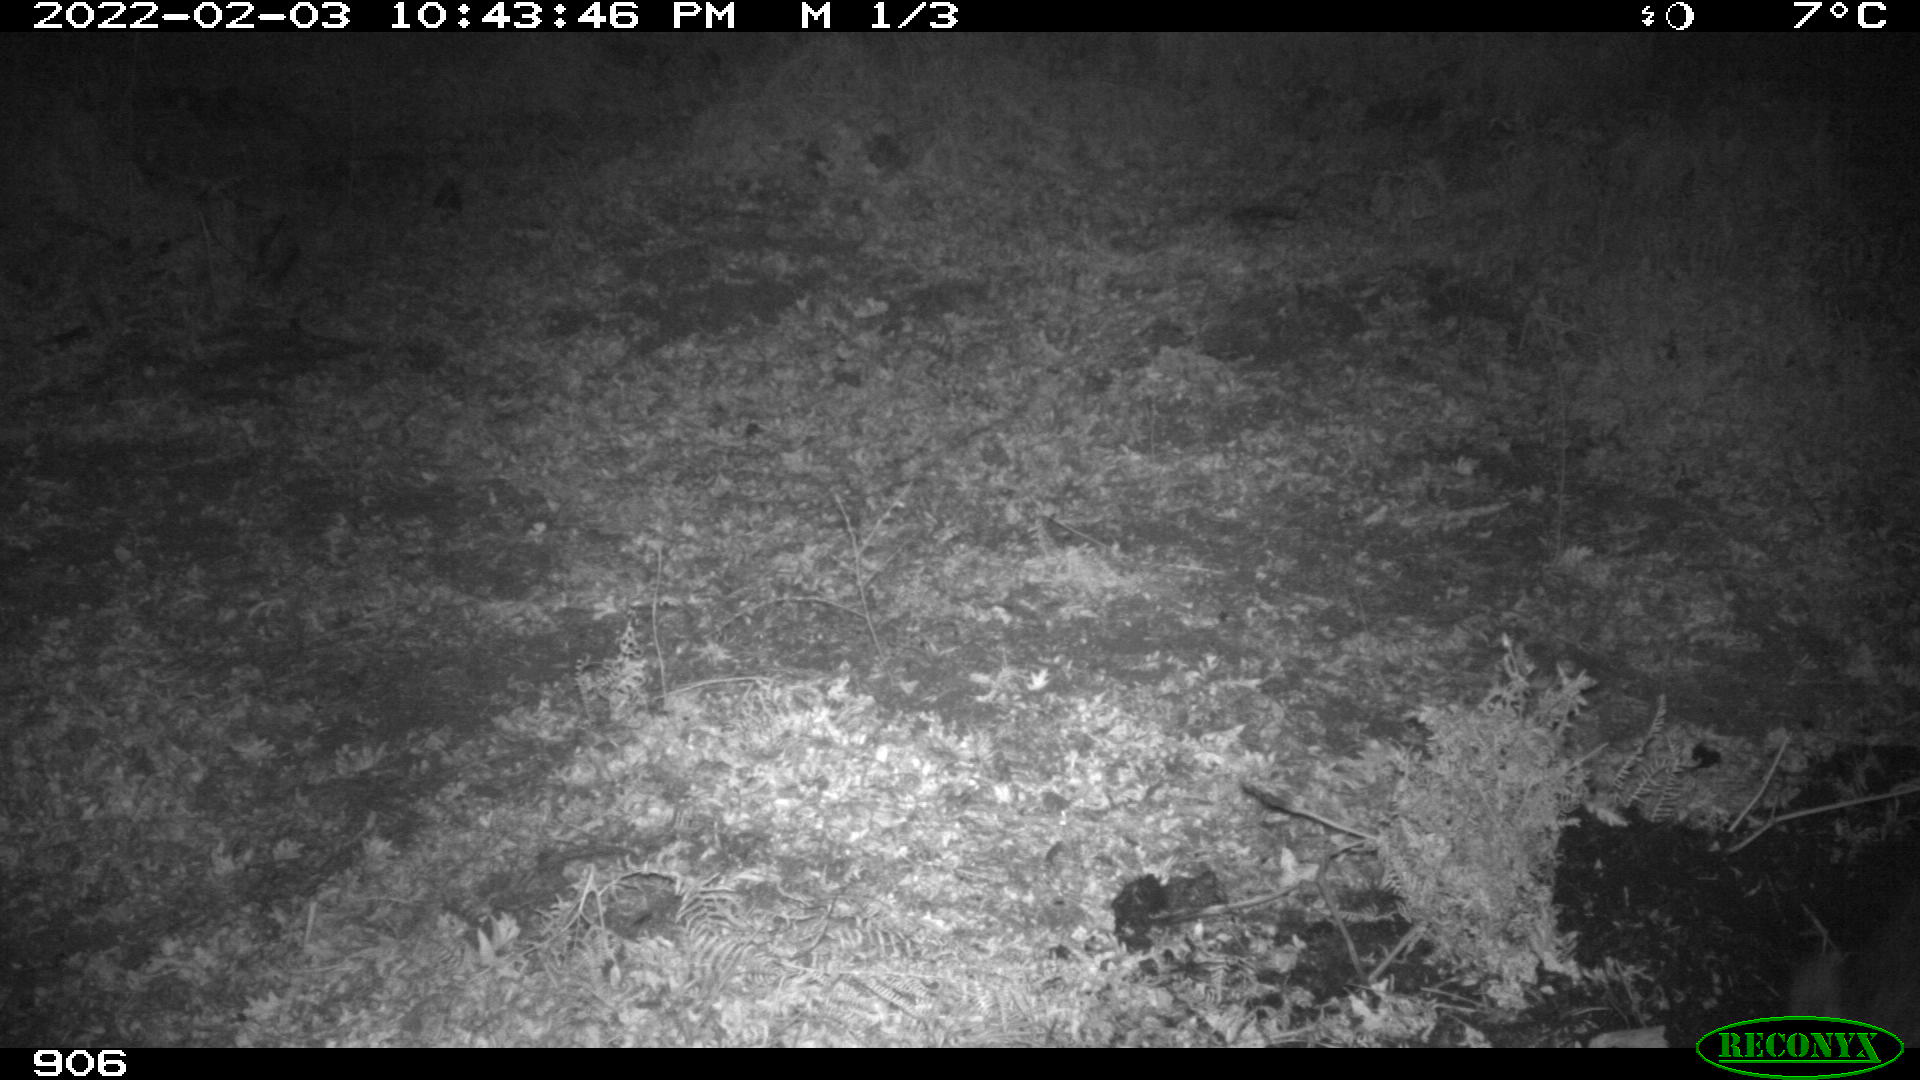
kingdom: Animalia
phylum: Chordata
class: Mammalia
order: Artiodactyla
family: Suidae
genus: Sus
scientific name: Sus scrofa
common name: Wild boar
